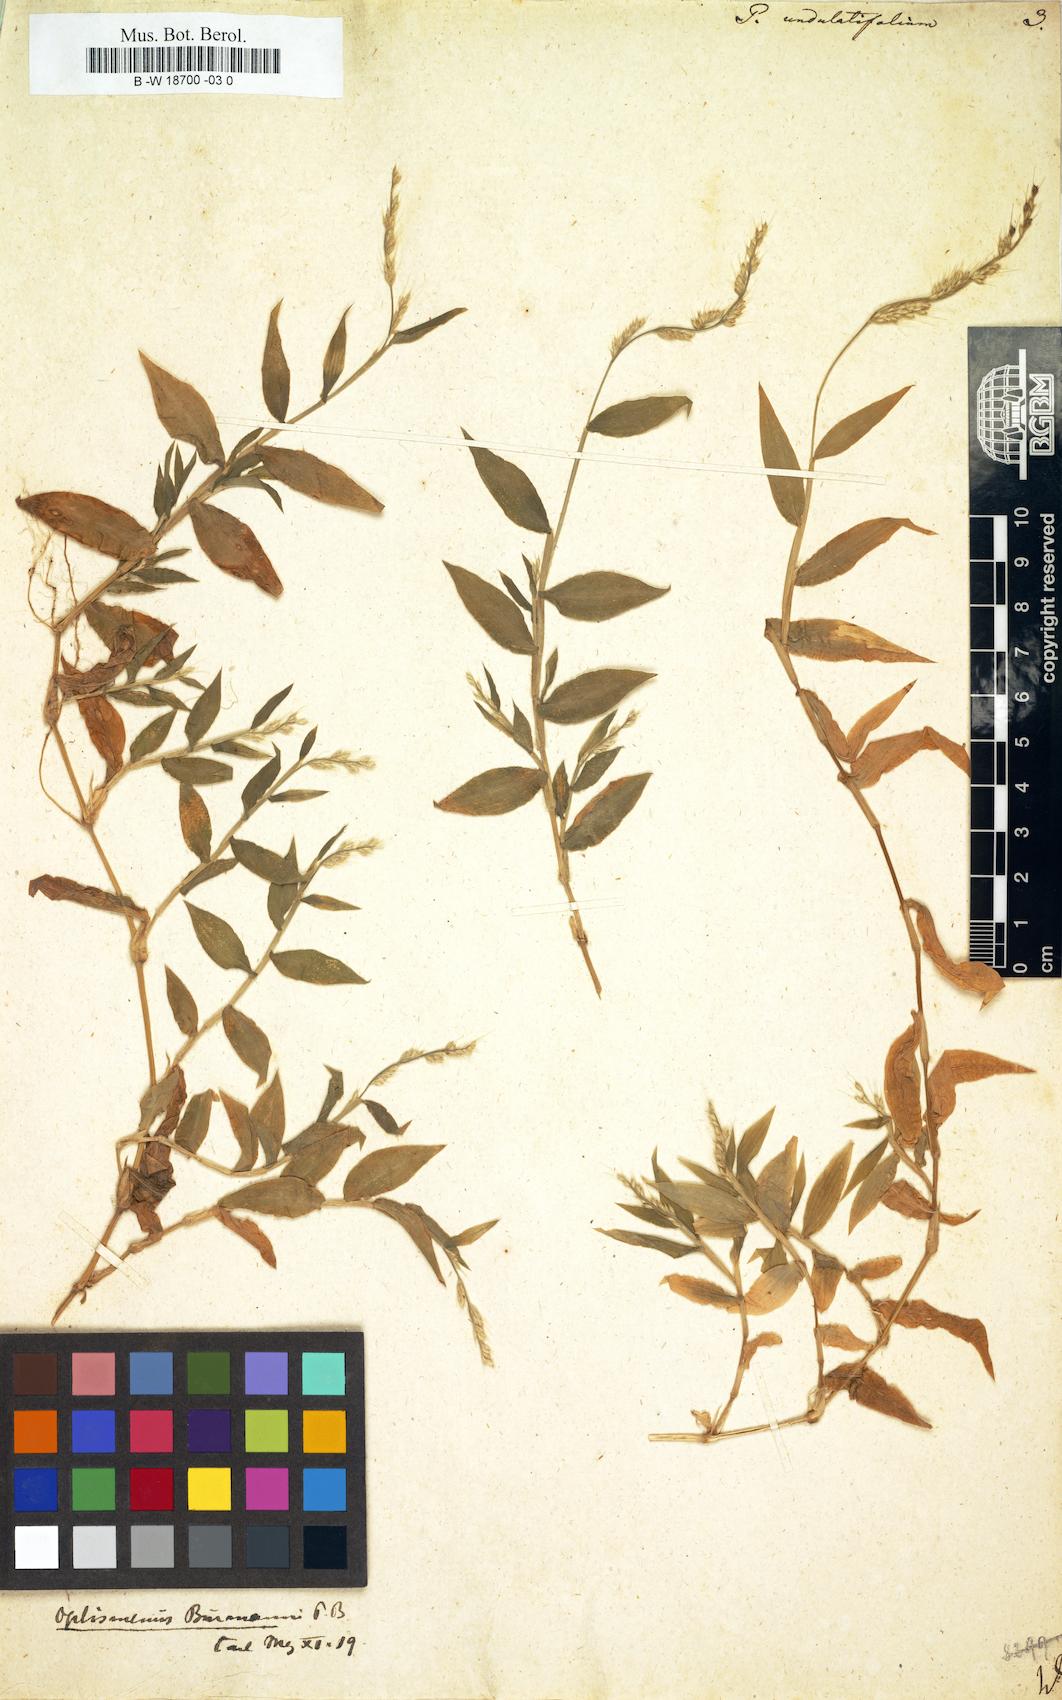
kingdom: Plantae
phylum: Tracheophyta
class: Liliopsida
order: Poales
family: Poaceae
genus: Oplismenus
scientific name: Oplismenus undulatifolius
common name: Wavyleaf basketgrass
